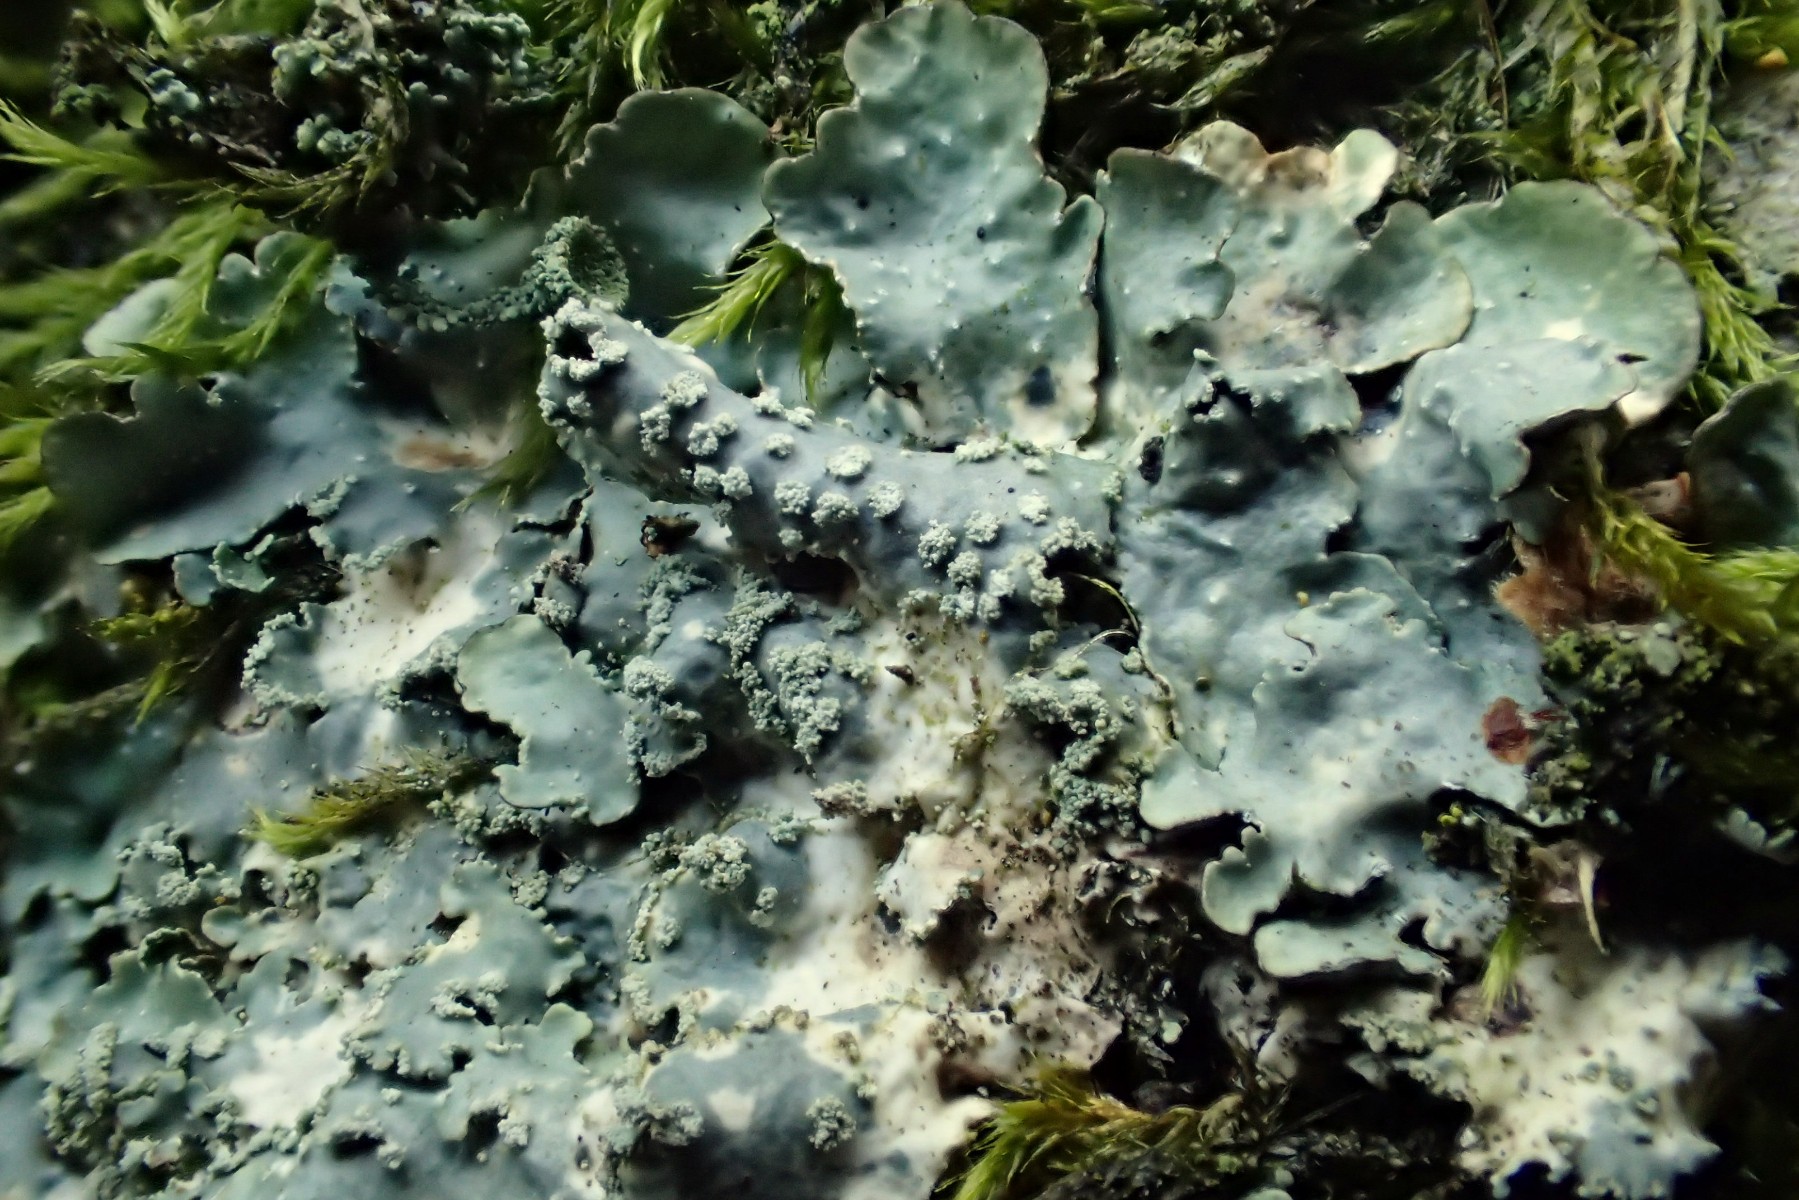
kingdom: Fungi
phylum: Ascomycota
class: Lecanoromycetes
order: Lecanorales
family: Parmeliaceae
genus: Punctelia
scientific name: Punctelia subrudecta
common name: punkt-skållav
